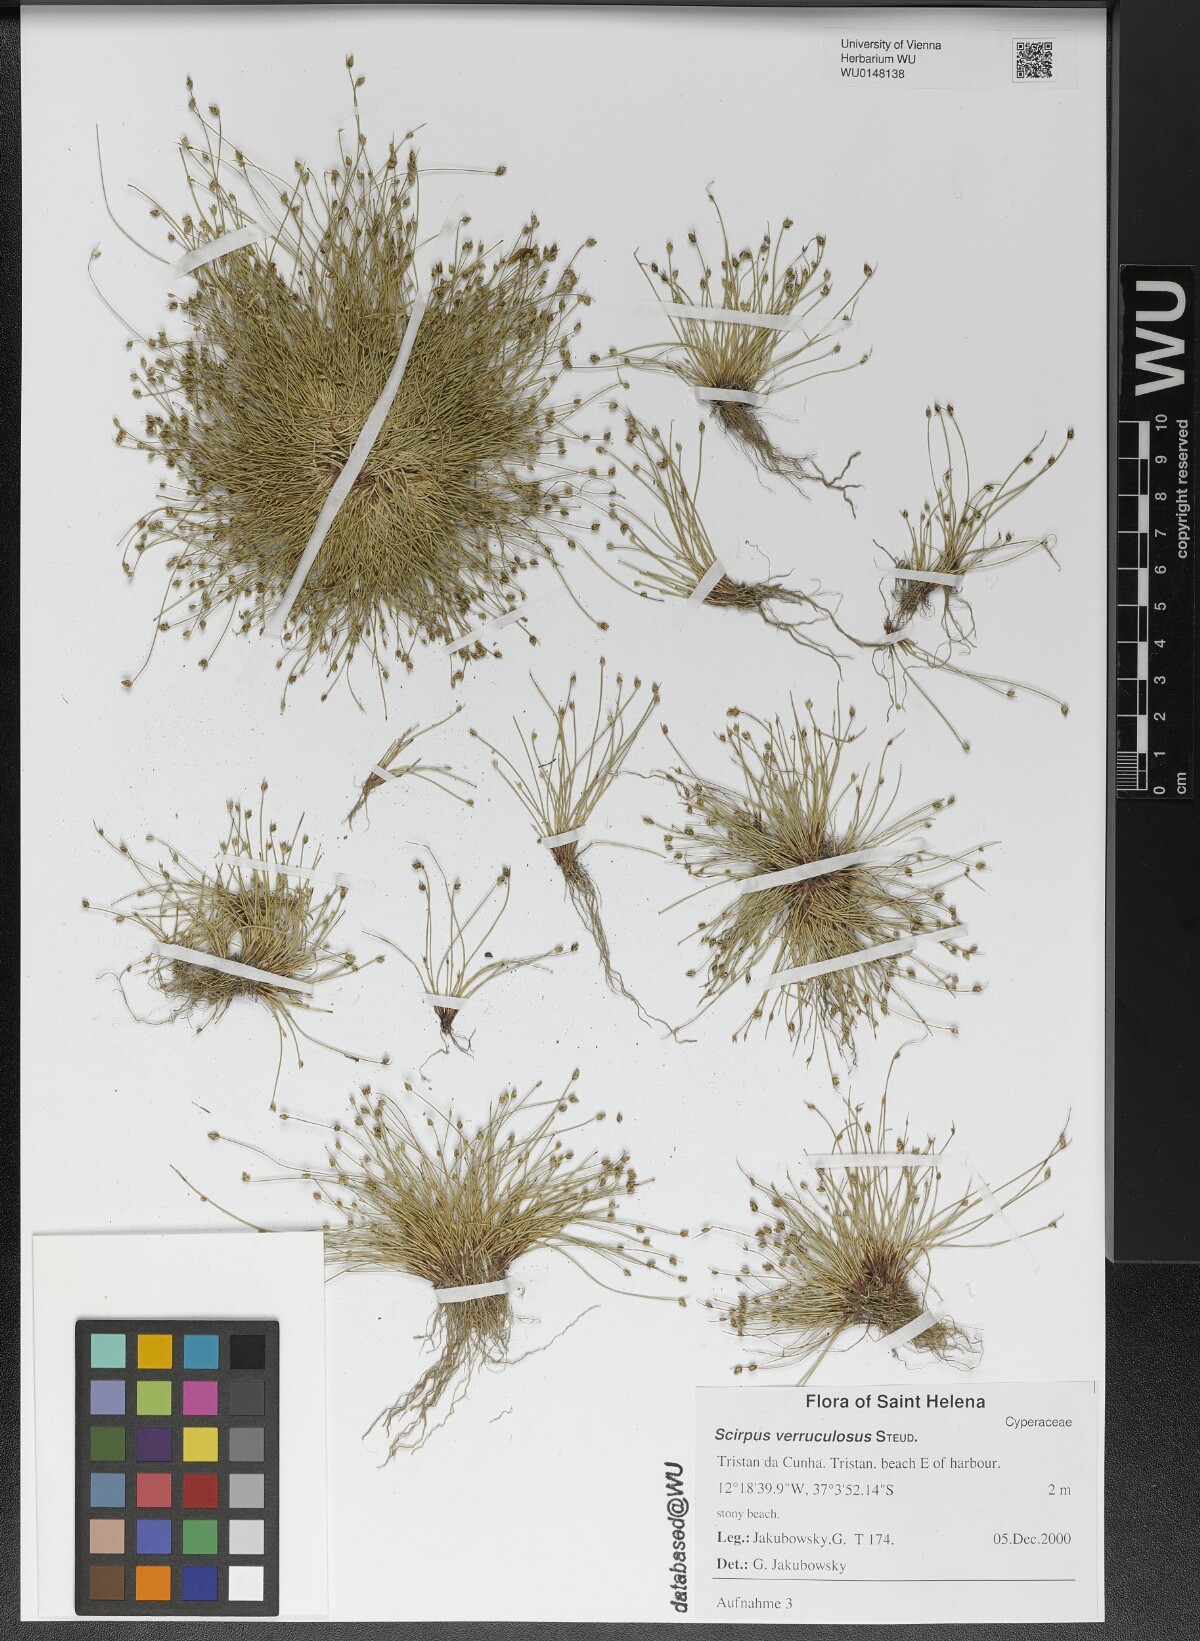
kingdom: Plantae
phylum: Tracheophyta
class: Liliopsida
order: Poales
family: Cyperaceae
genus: Isolepis
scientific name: Isolepis verrucosula
